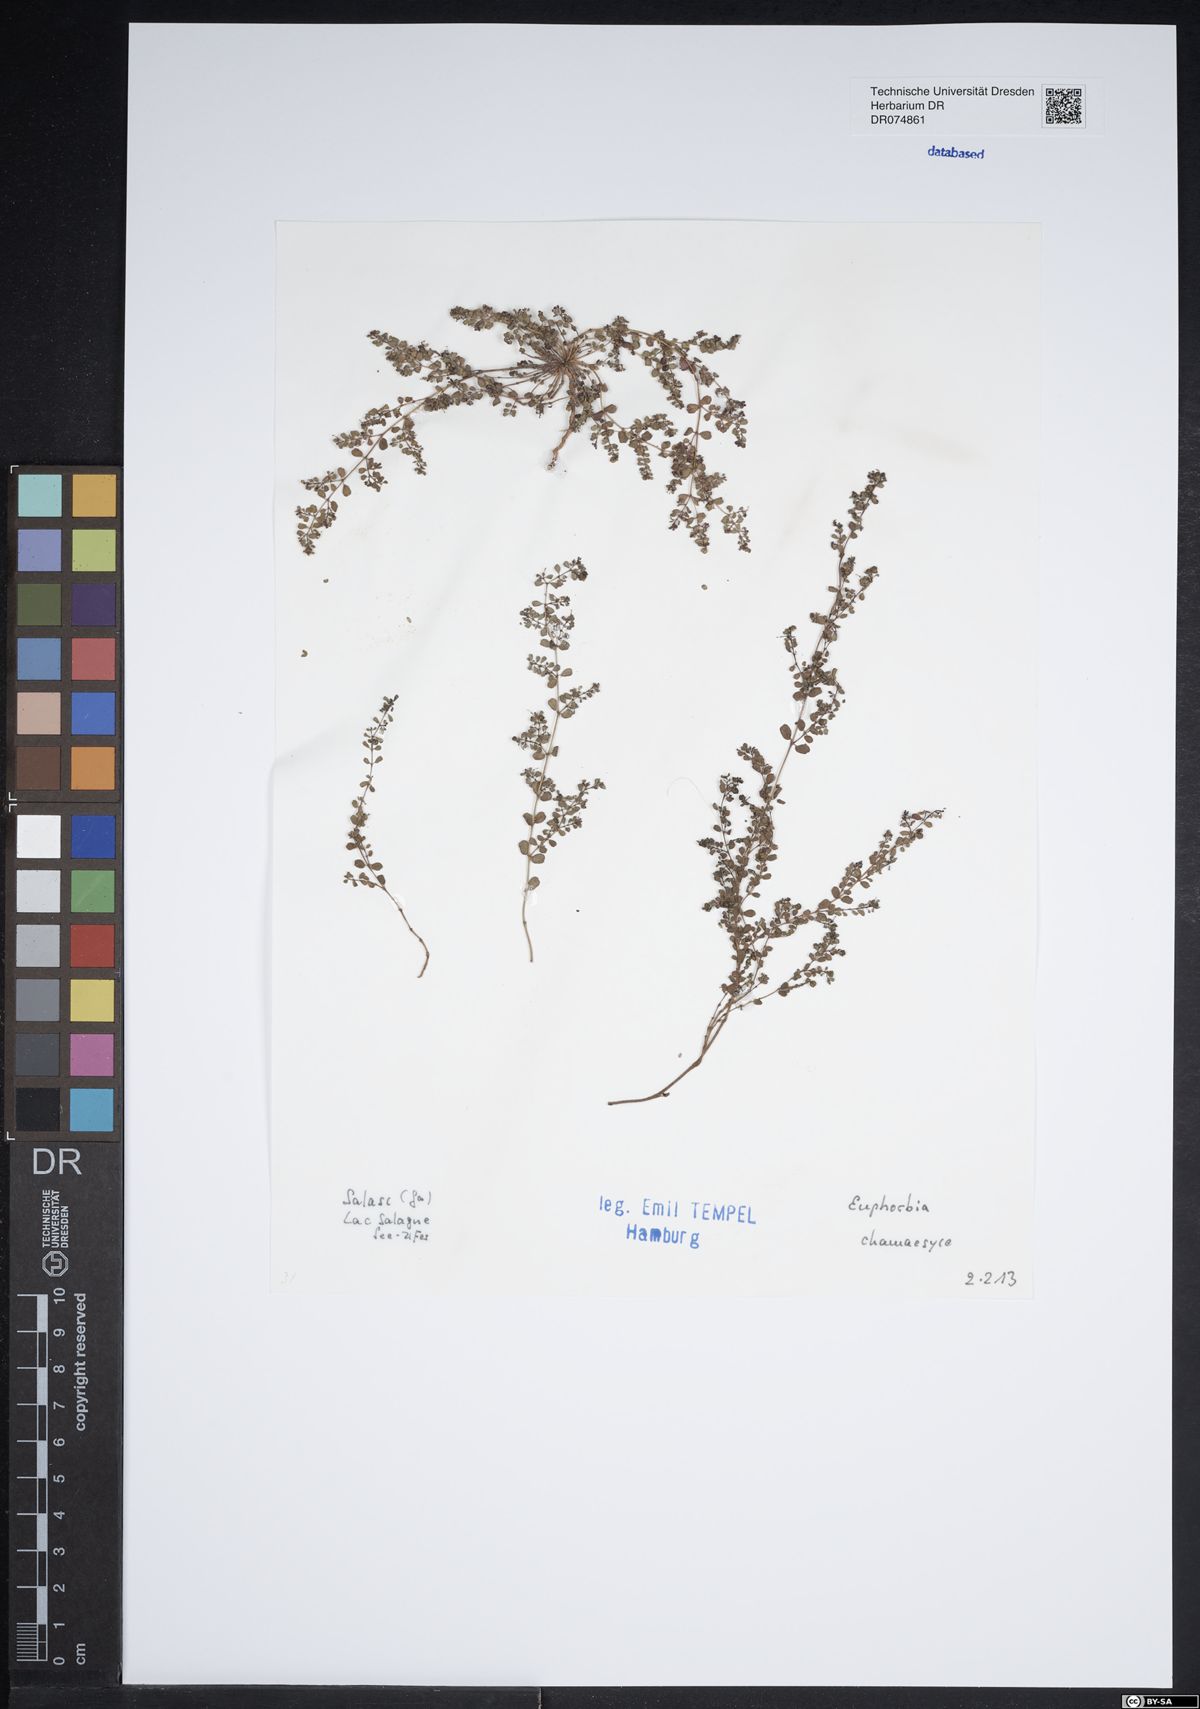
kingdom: Plantae
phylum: Tracheophyta
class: Magnoliopsida
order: Malpighiales
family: Euphorbiaceae
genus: Euphorbia
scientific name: Euphorbia chamaesyce
